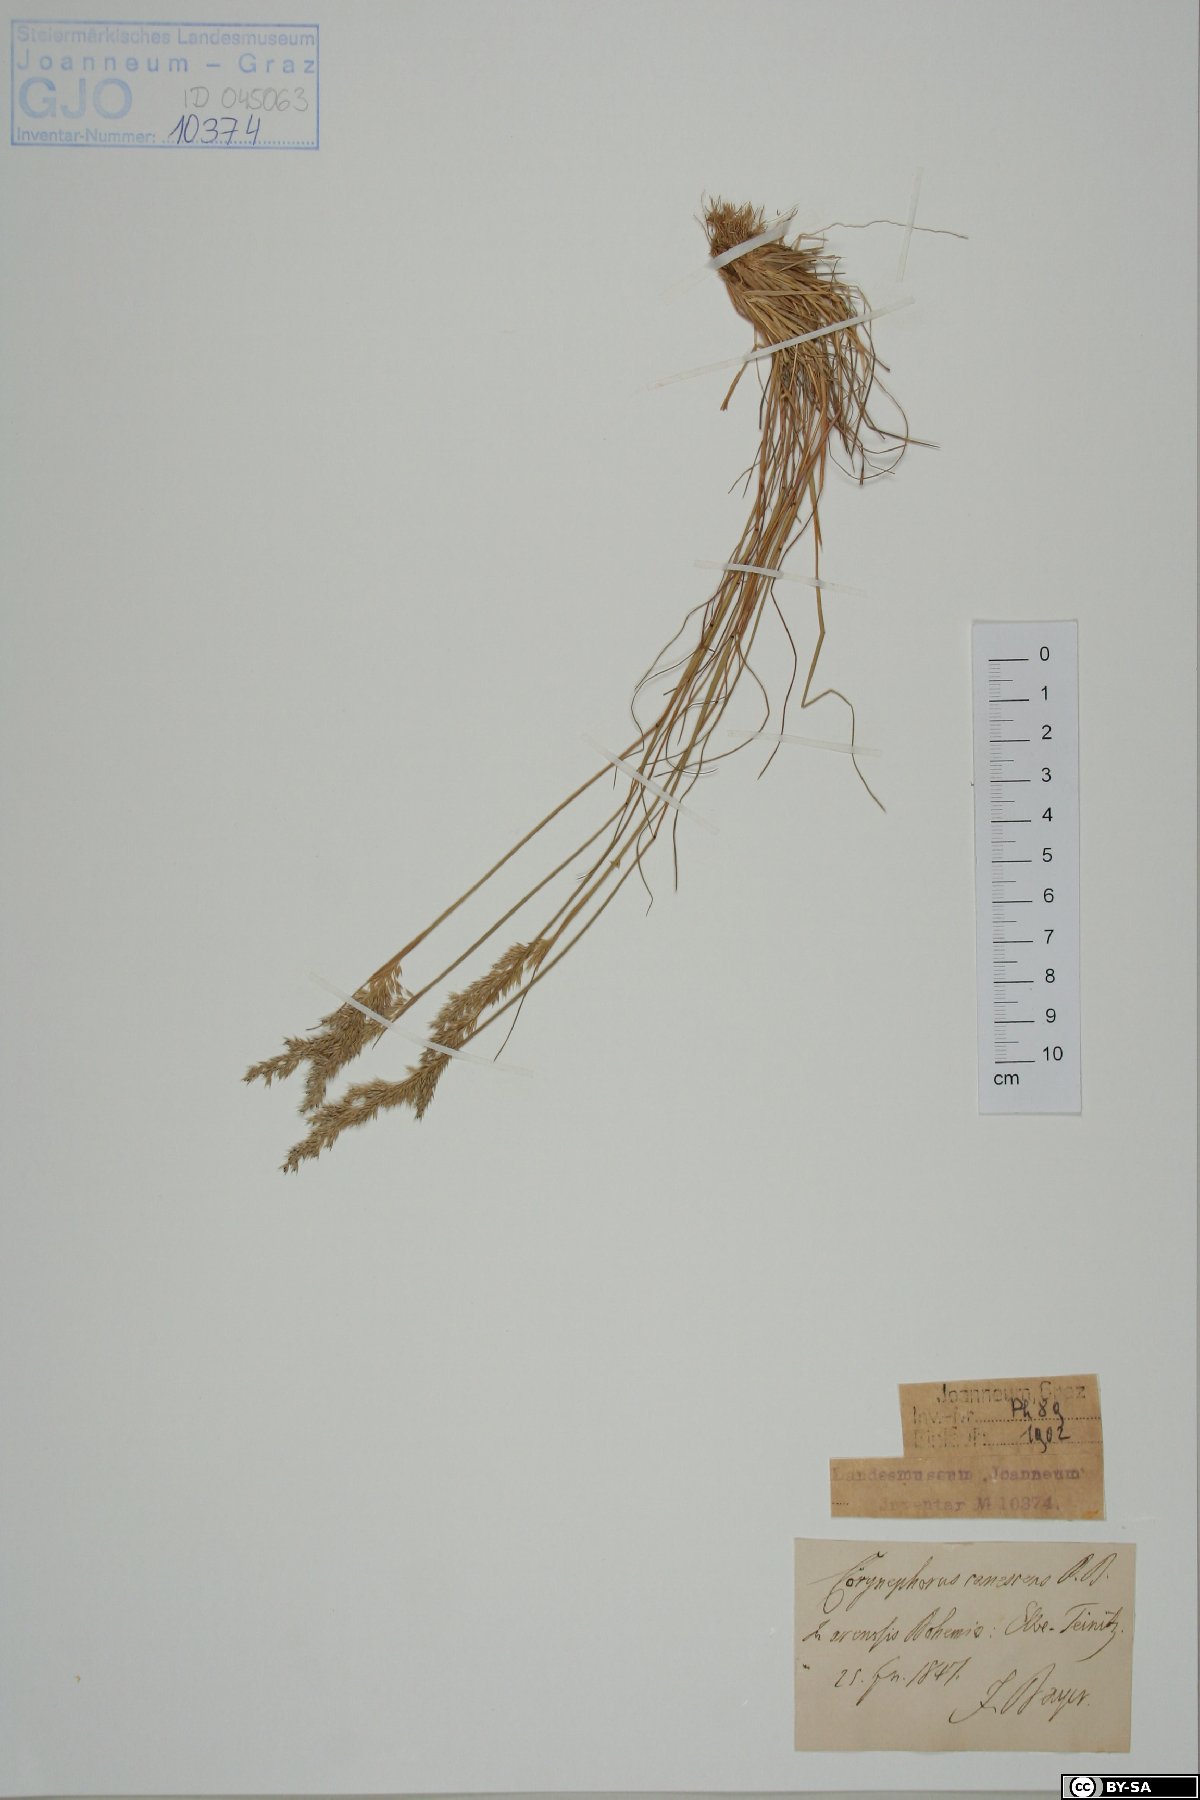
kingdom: Plantae
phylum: Tracheophyta
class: Liliopsida
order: Poales
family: Poaceae
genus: Corynephorus
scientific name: Corynephorus canescens
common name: Grey hair-grass
